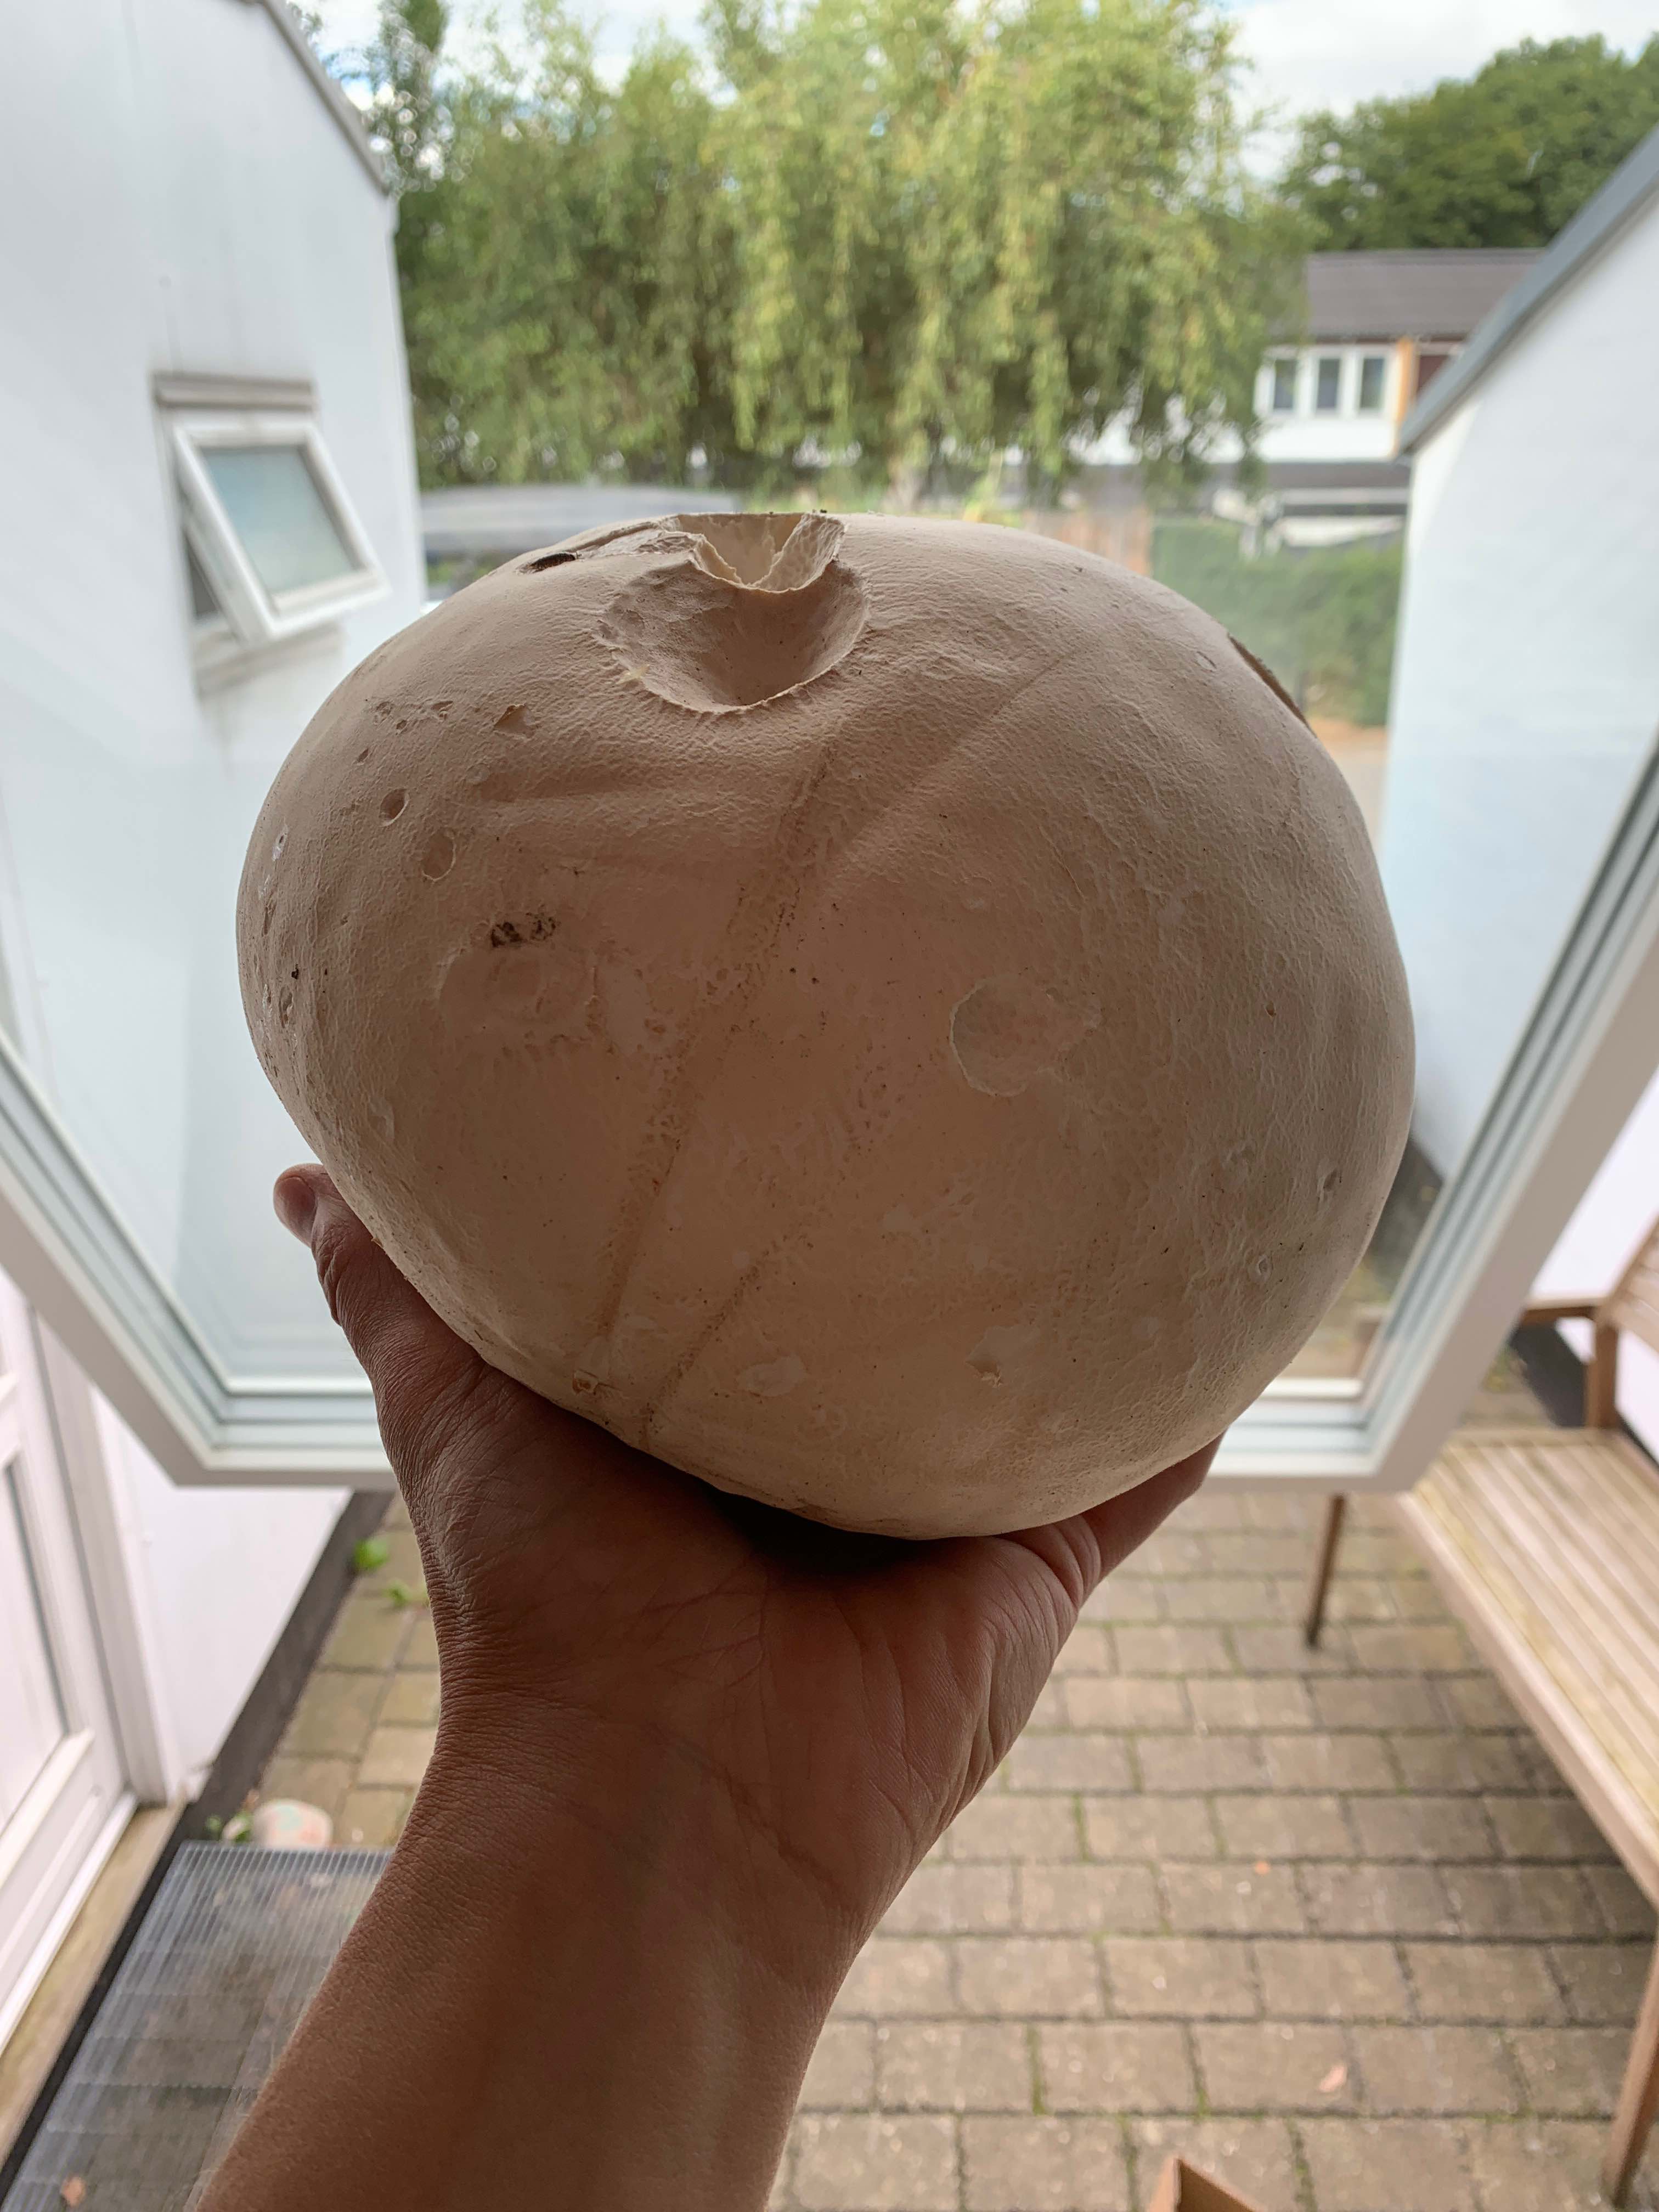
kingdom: Fungi
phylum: Basidiomycota
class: Agaricomycetes
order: Agaricales
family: Lycoperdaceae
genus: Calvatia
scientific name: Calvatia gigantea
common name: kæmpestøvbold
